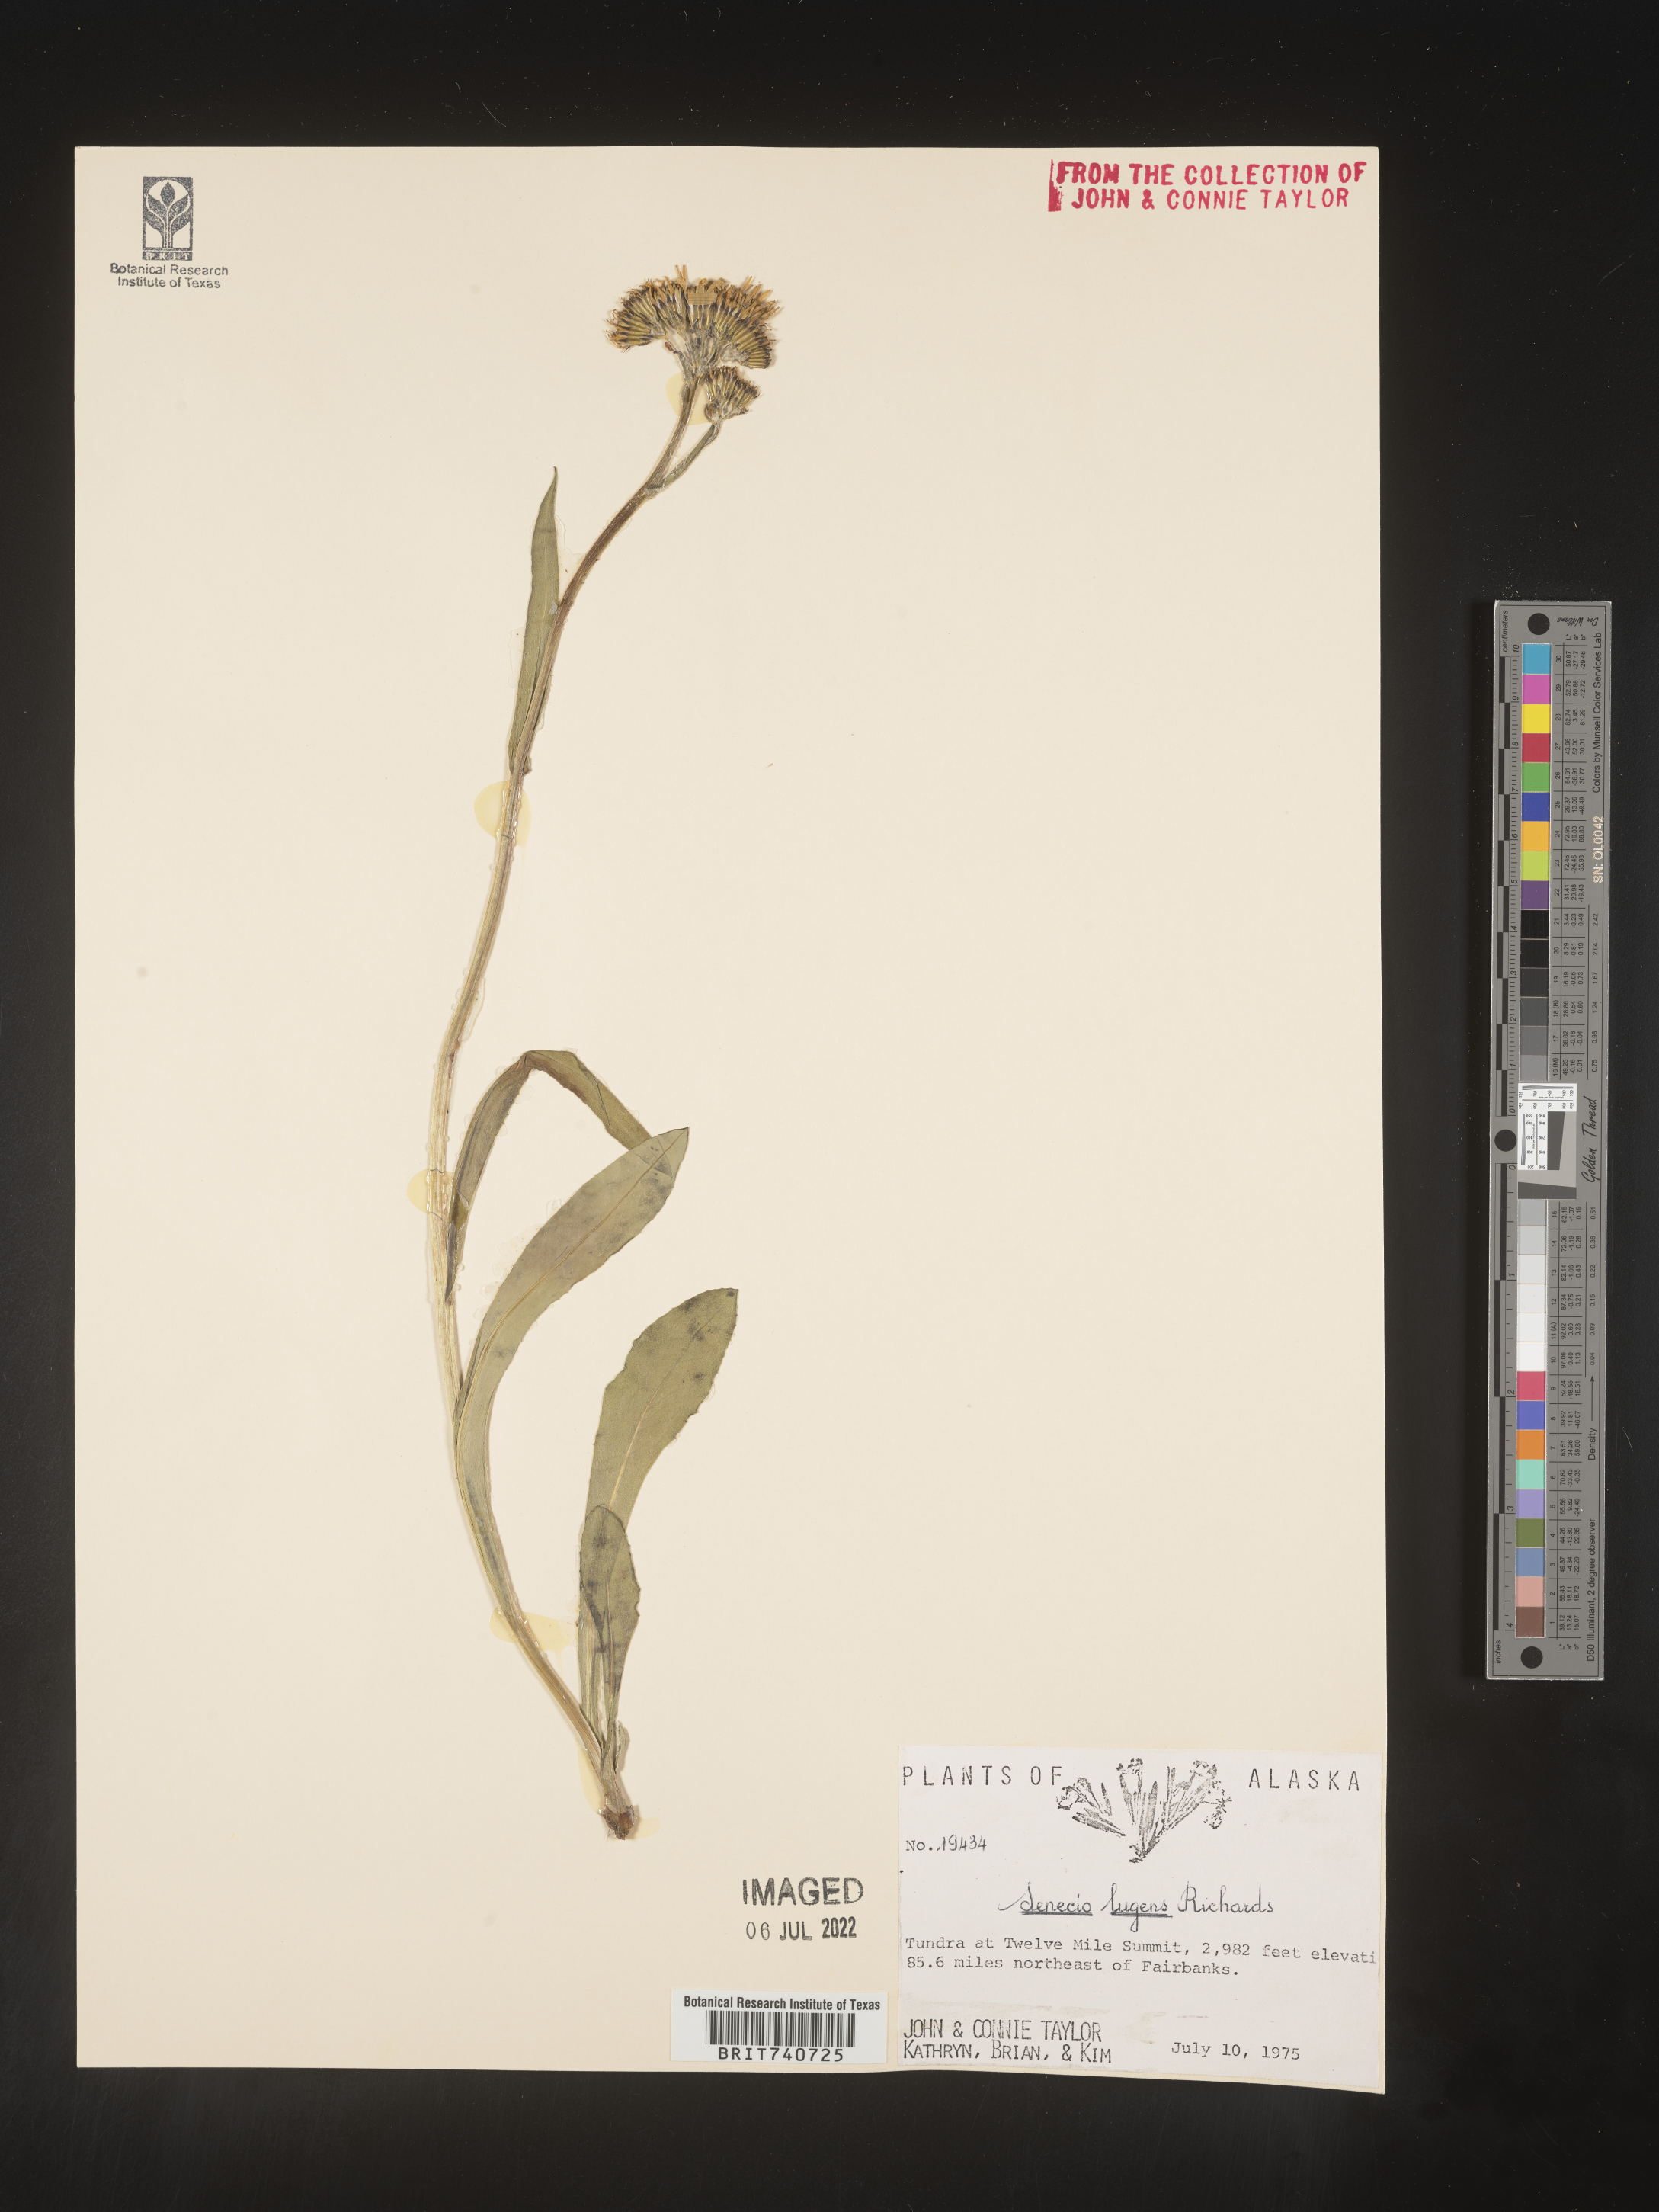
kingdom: Plantae
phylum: Tracheophyta
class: Magnoliopsida
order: Asterales
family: Asteraceae
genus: Senecio
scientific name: Senecio lugens
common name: Black-tip groundsel
